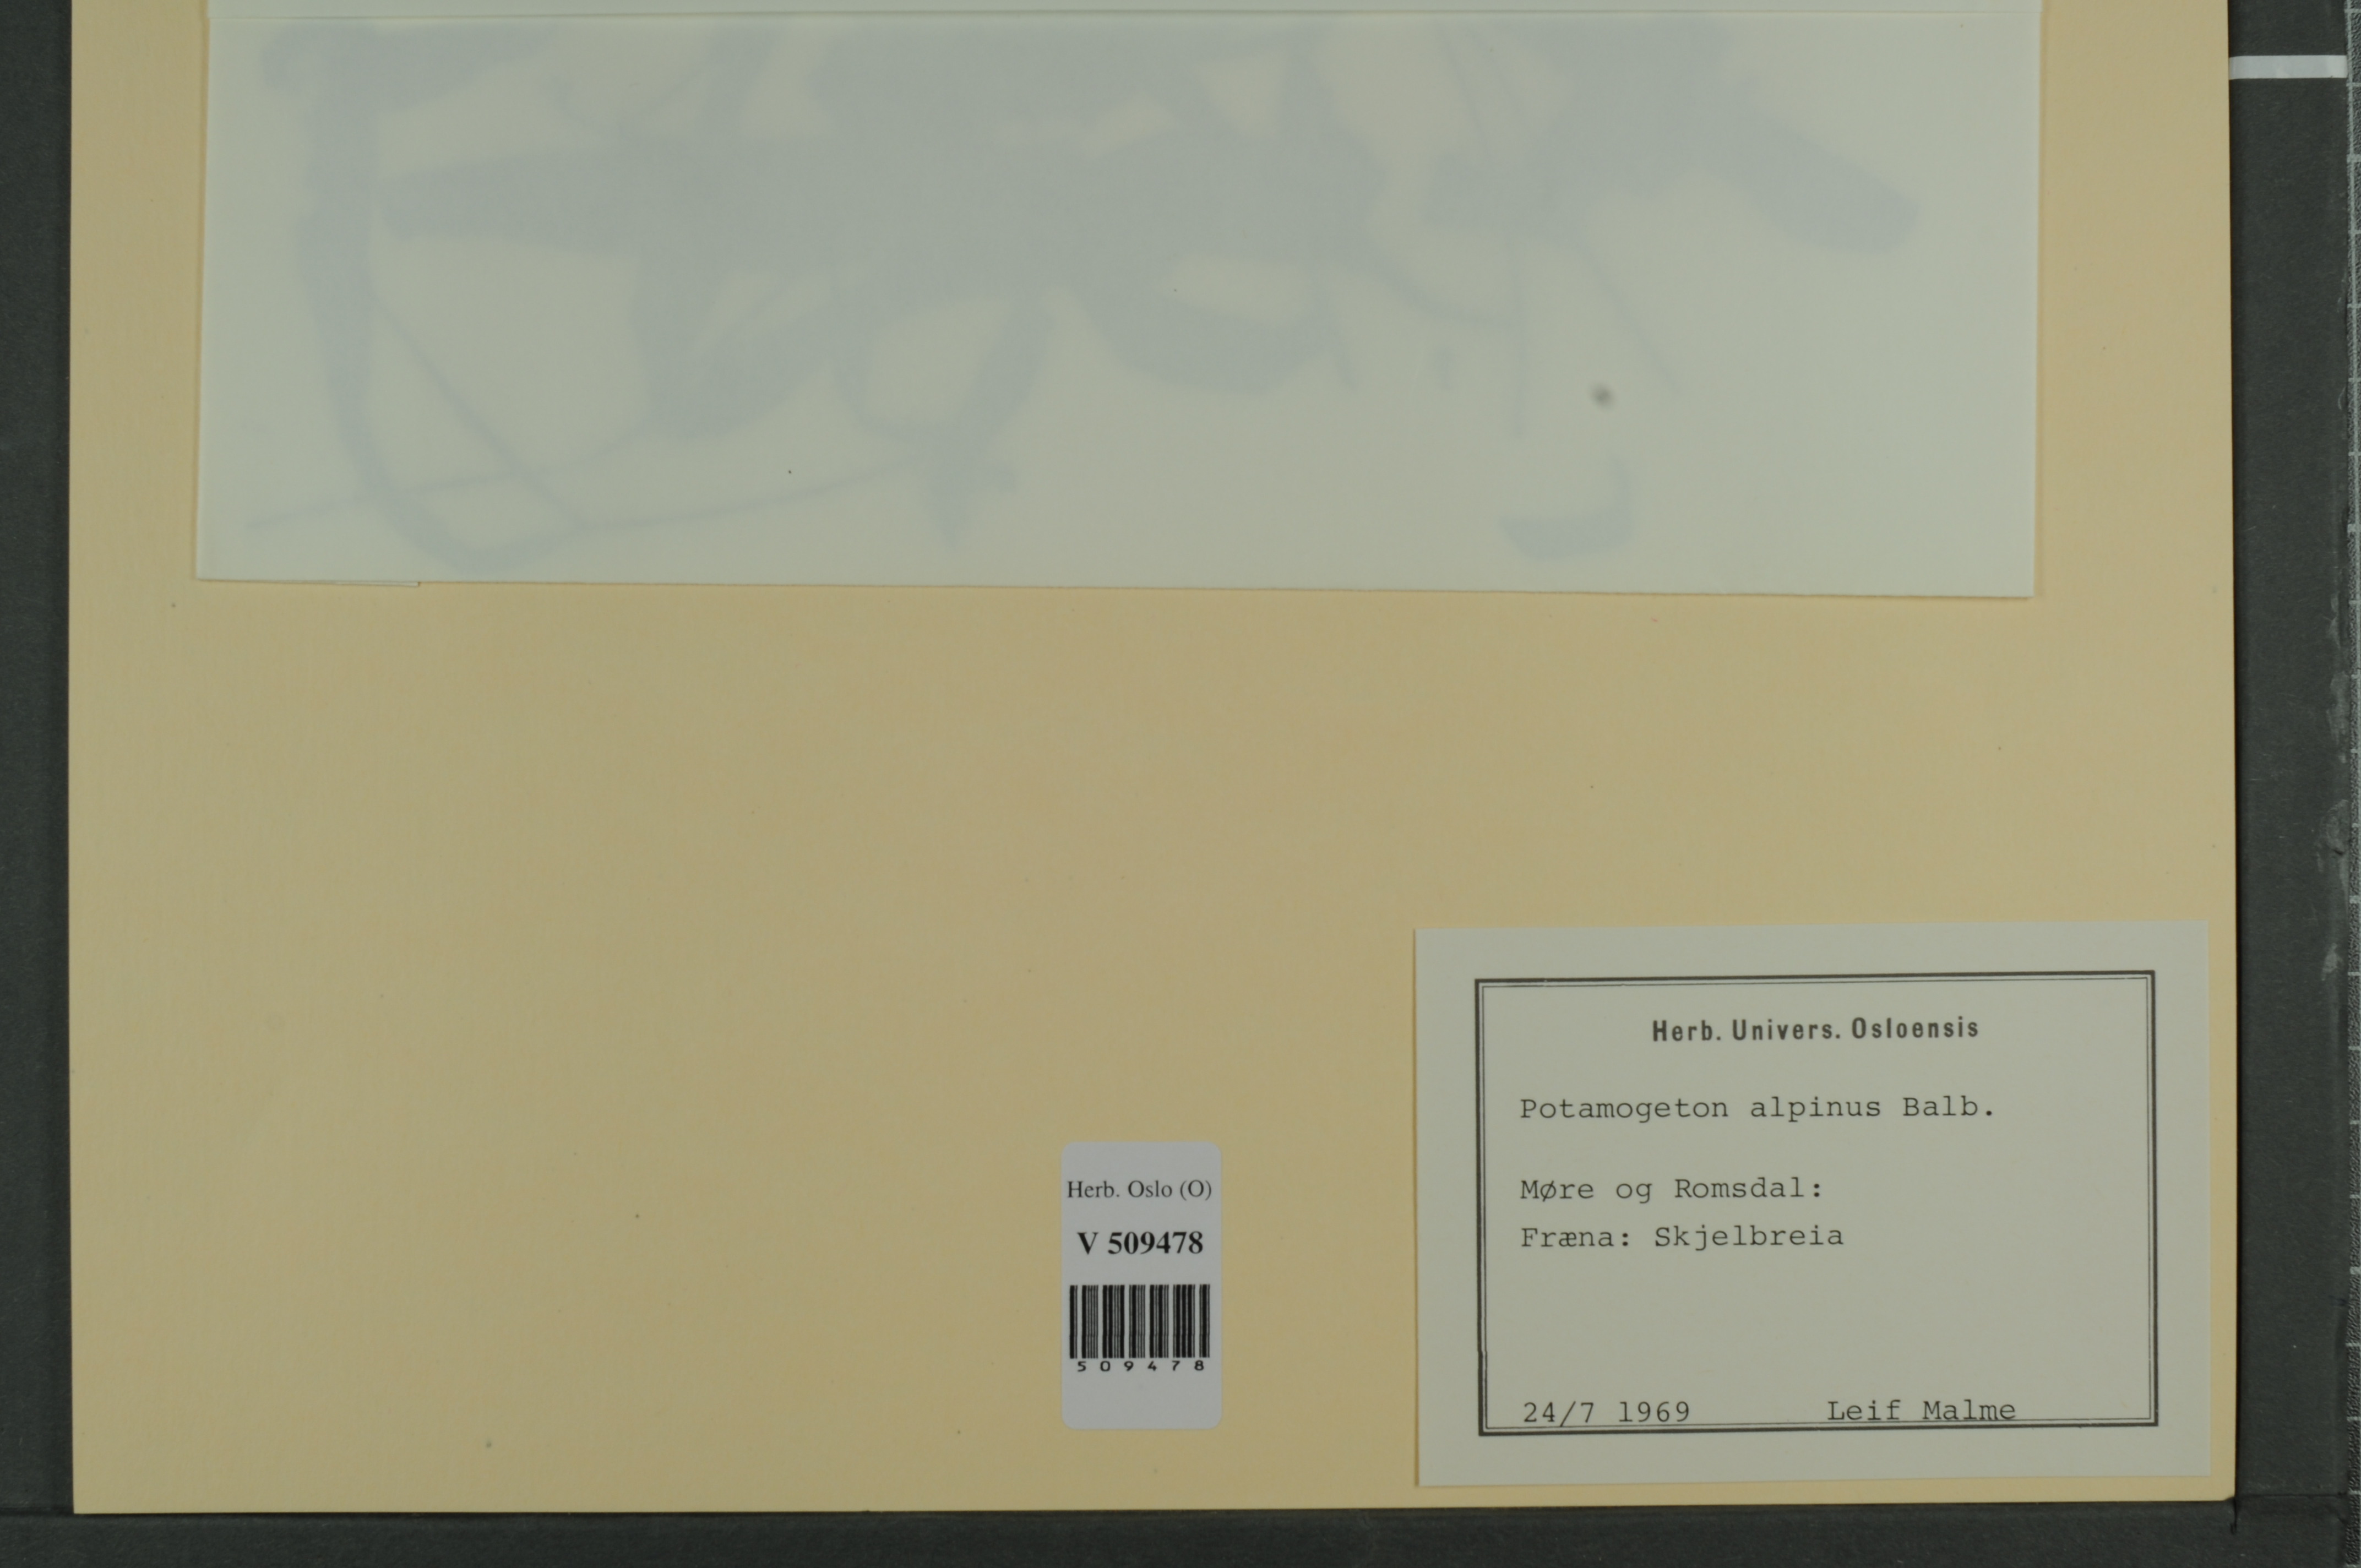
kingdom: Plantae
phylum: Tracheophyta
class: Liliopsida
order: Alismatales
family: Potamogetonaceae
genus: Potamogeton
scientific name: Potamogeton alpinus
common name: Red pondweed
